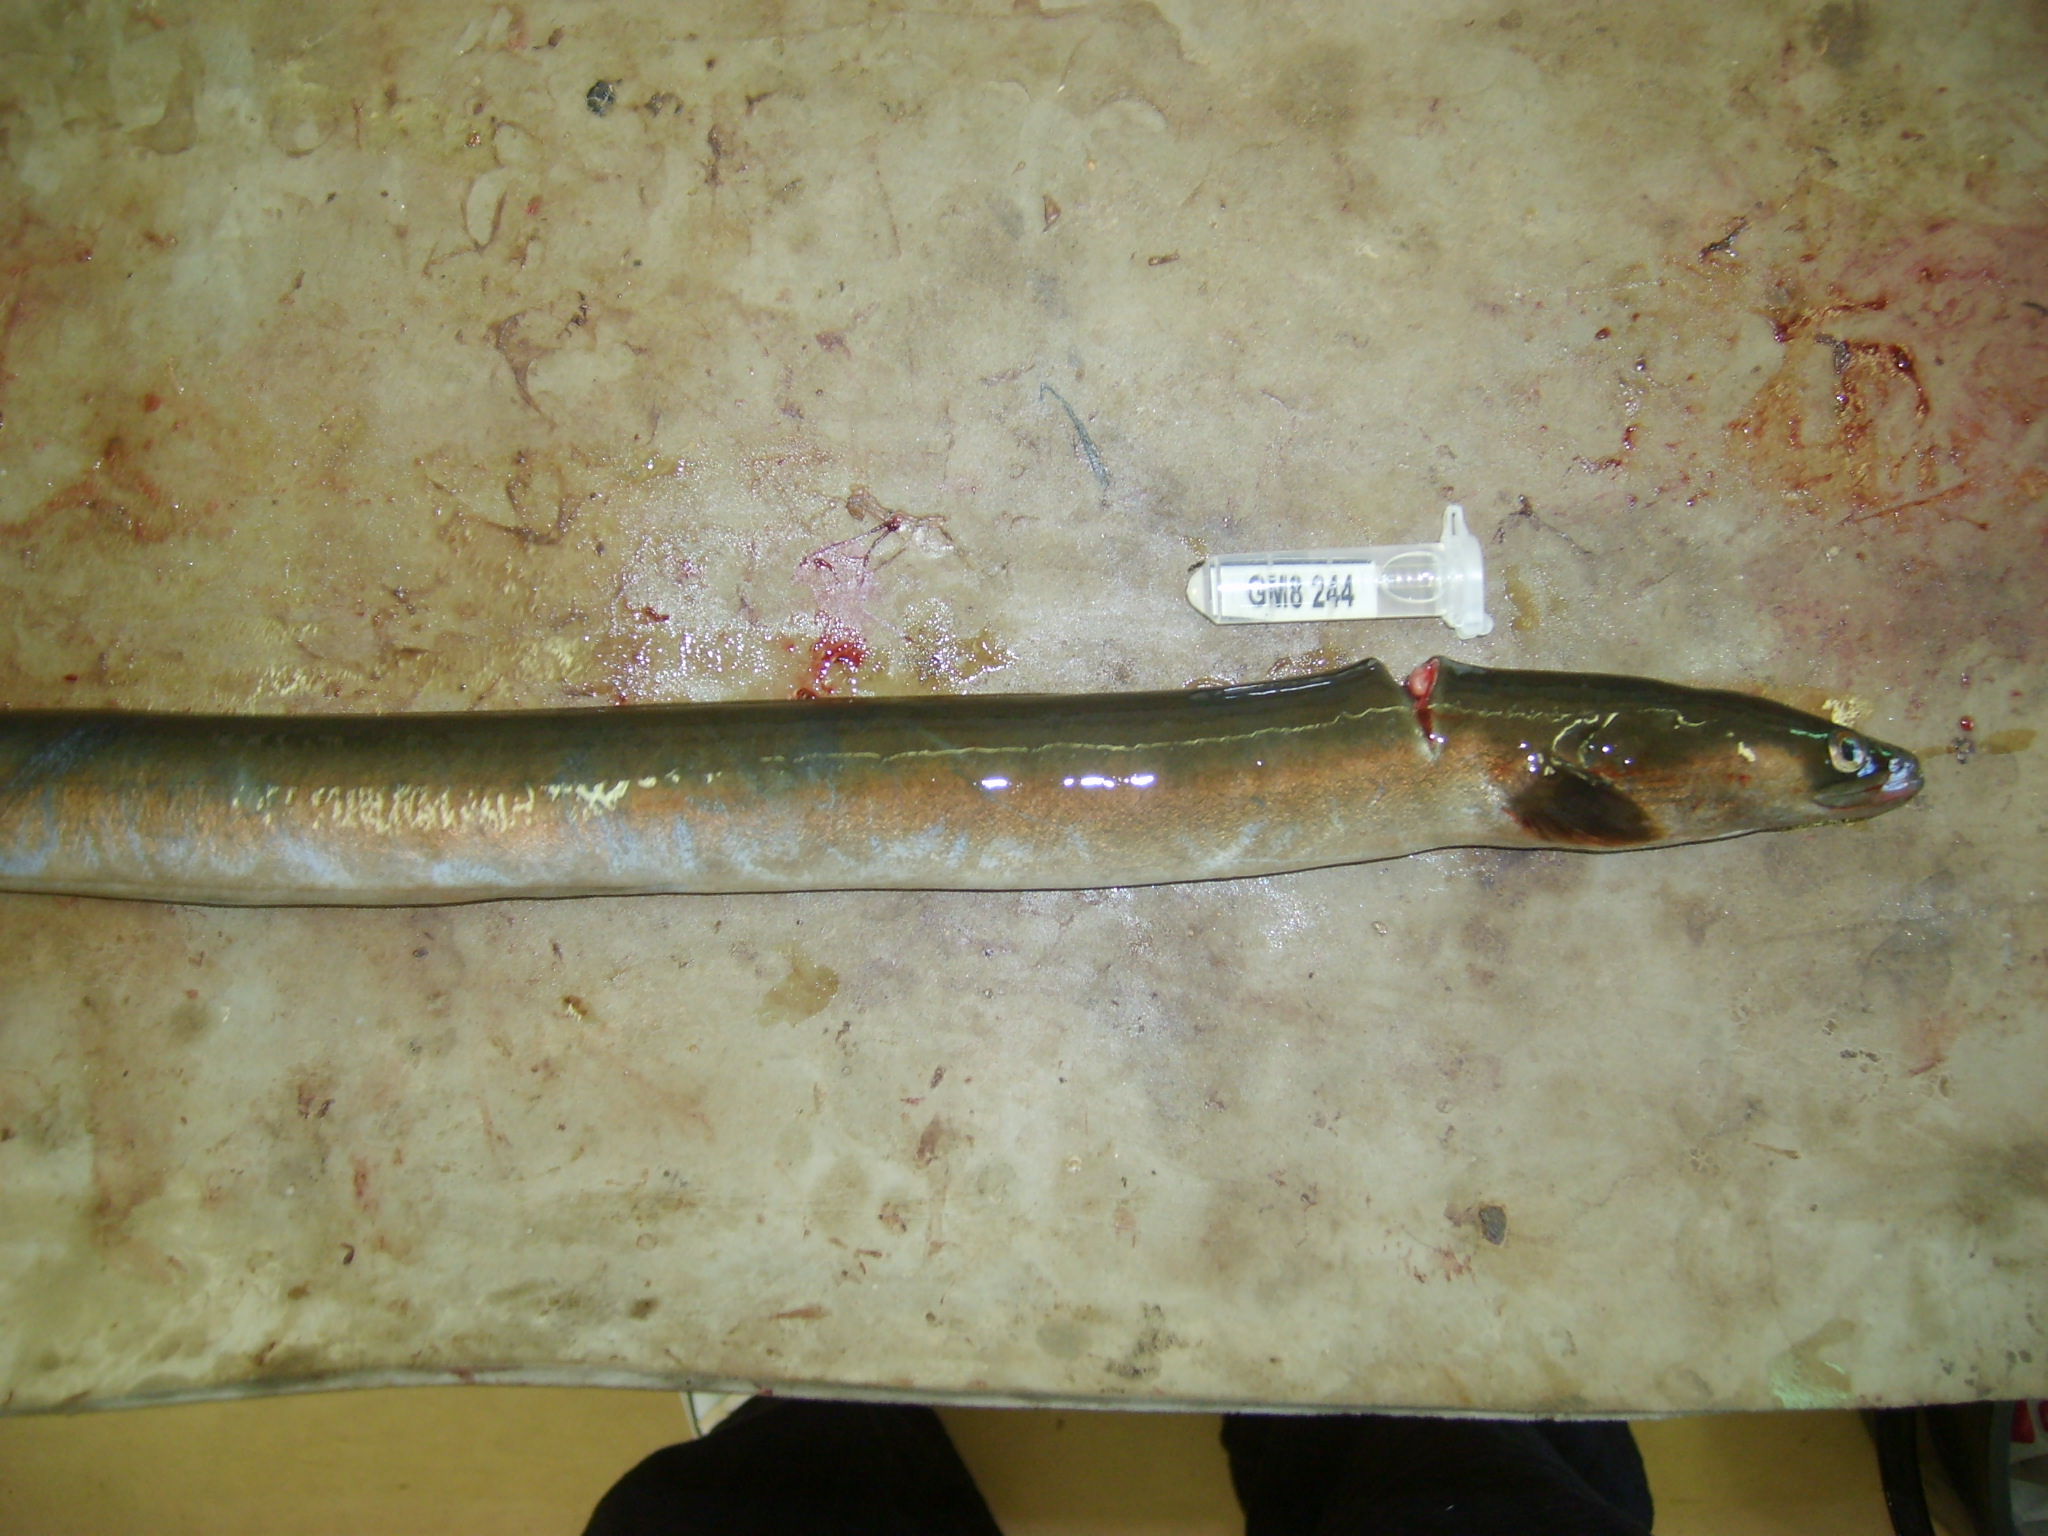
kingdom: Animalia
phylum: Chordata
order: Anguilliformes
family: Anguillidae
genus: Anguilla
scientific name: Anguilla mossambica
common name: African longfin eel
